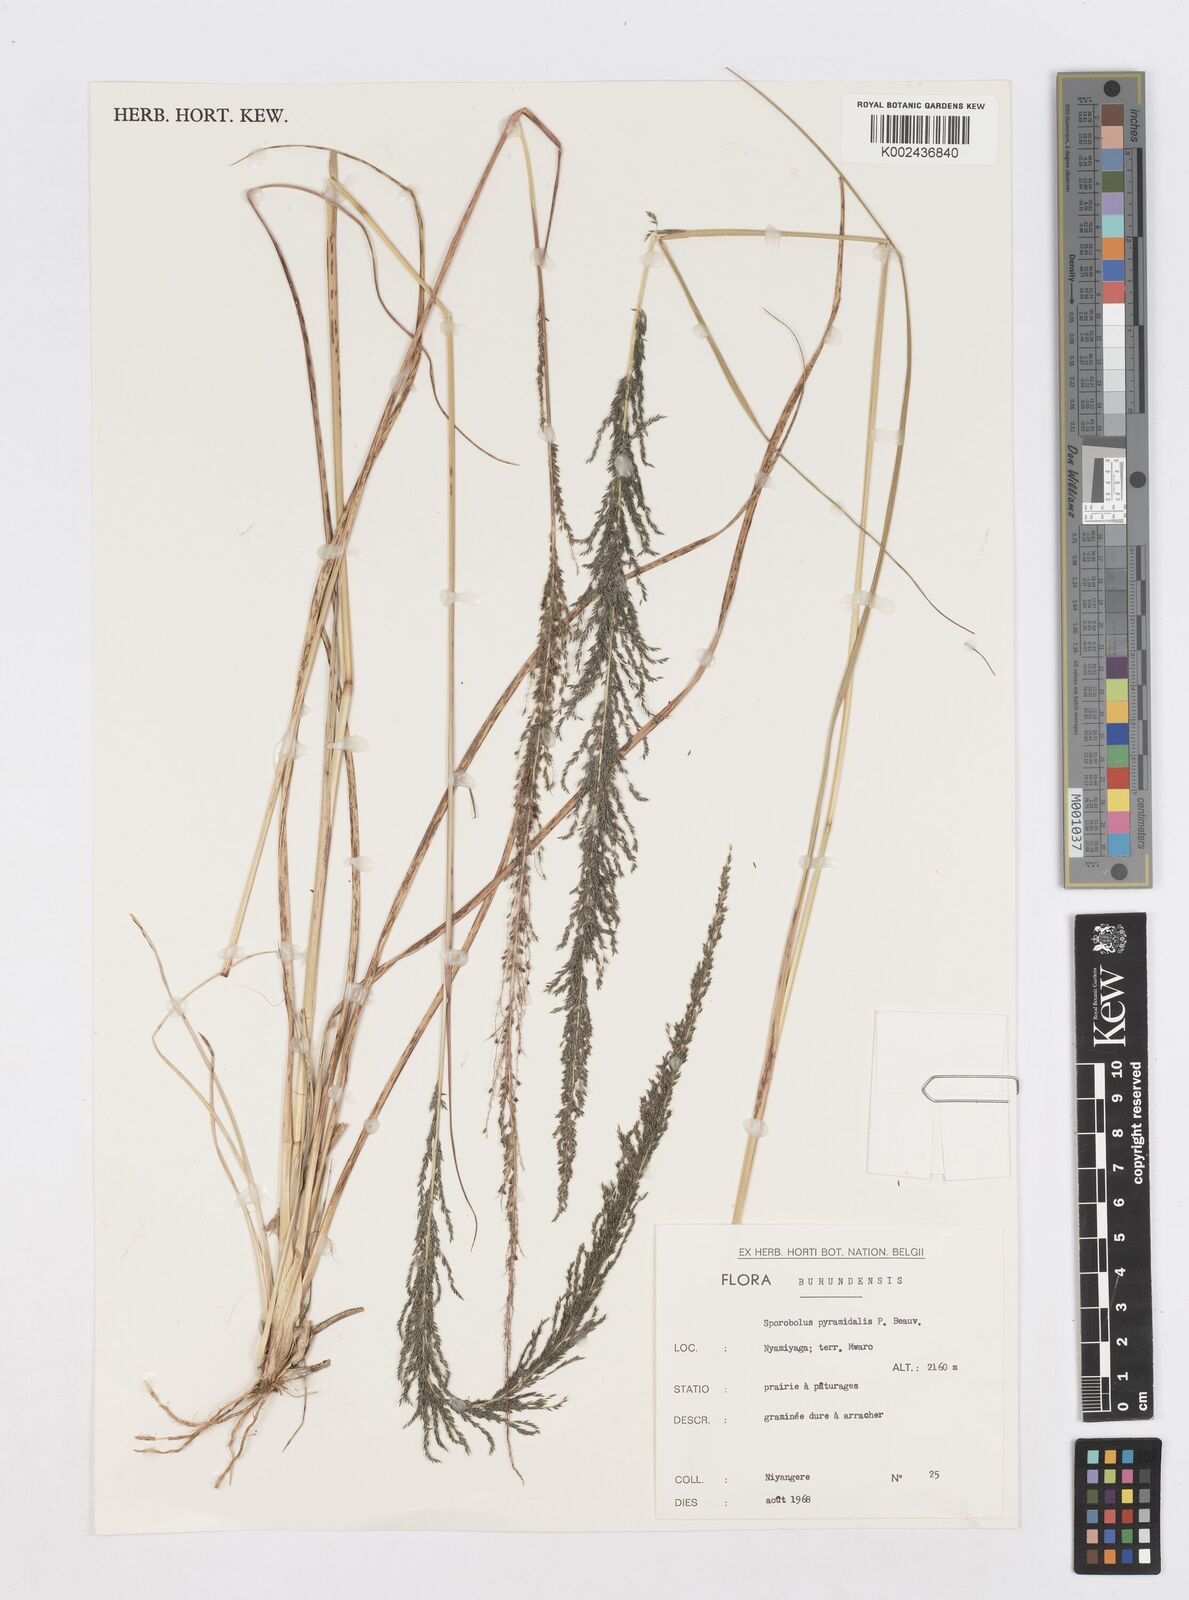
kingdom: Plantae
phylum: Tracheophyta
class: Liliopsida
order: Poales
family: Poaceae
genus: Sporobolus
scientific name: Sporobolus pyramidalis
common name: West indian dropseed
